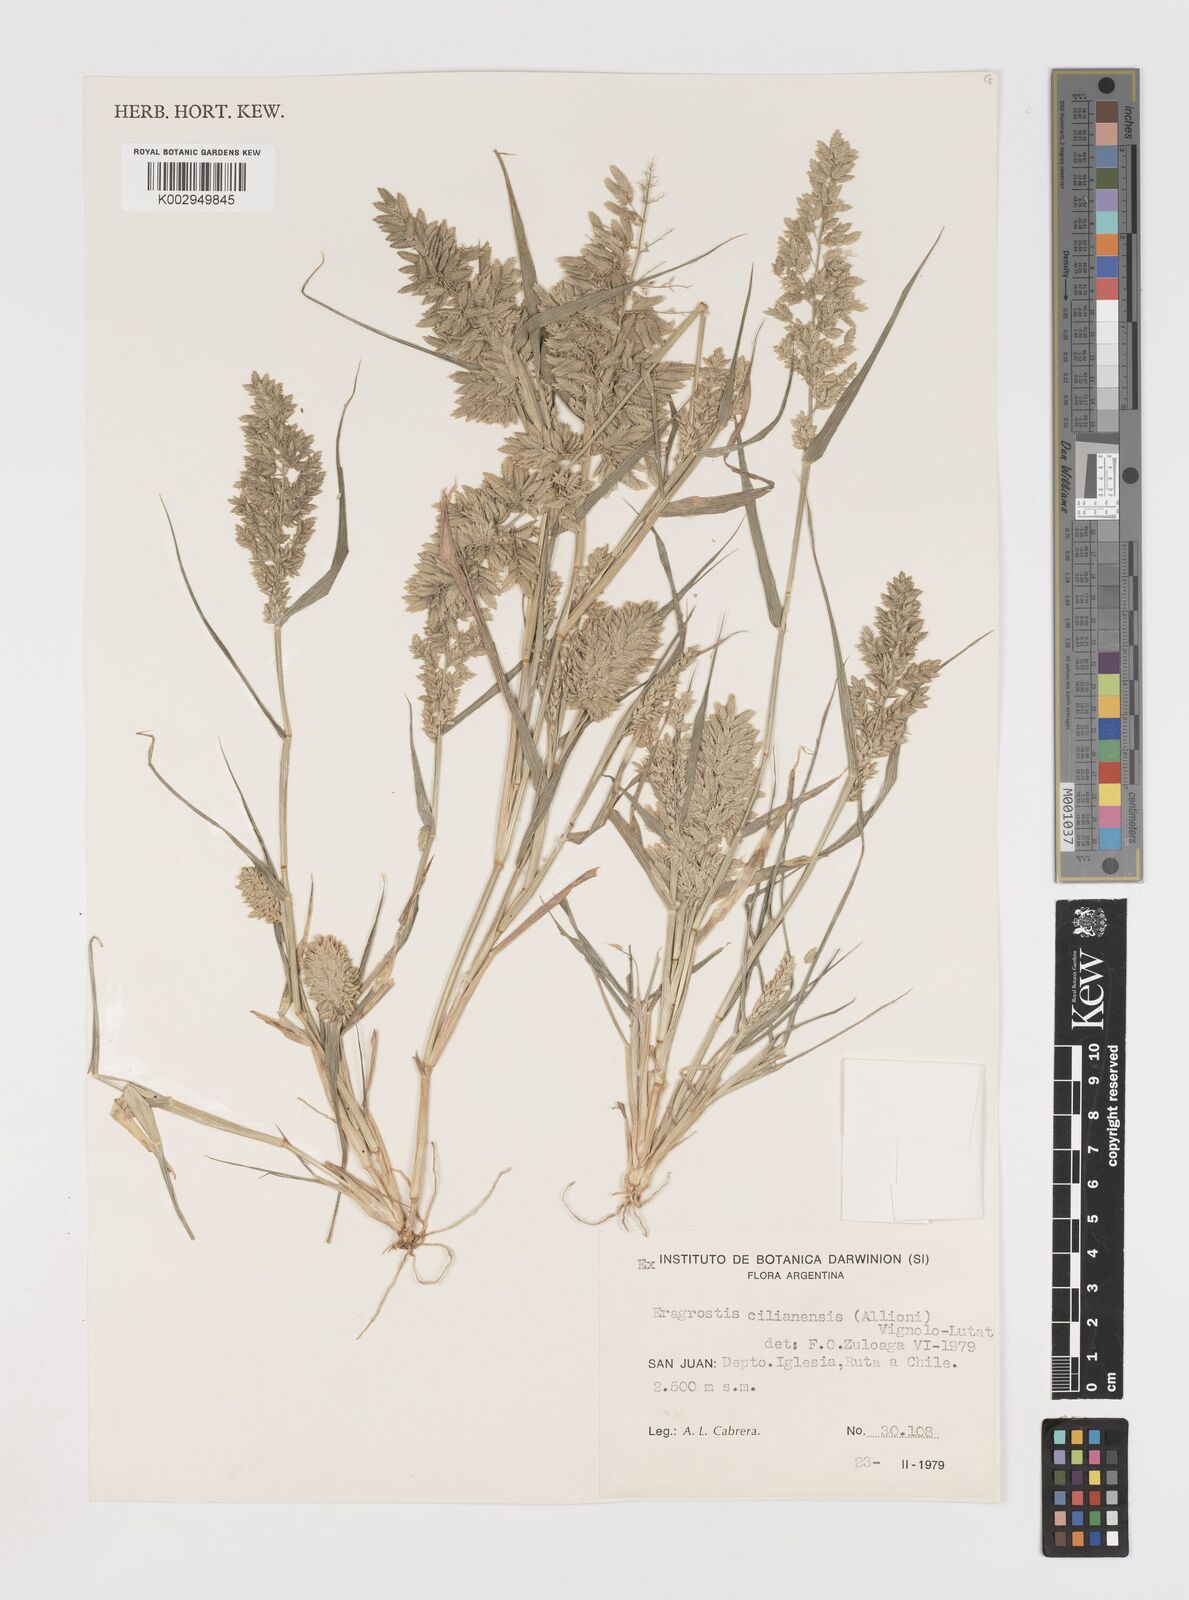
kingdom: Plantae
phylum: Tracheophyta
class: Liliopsida
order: Poales
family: Poaceae
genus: Eragrostis
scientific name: Eragrostis cilianensis
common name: Stinkgrass
